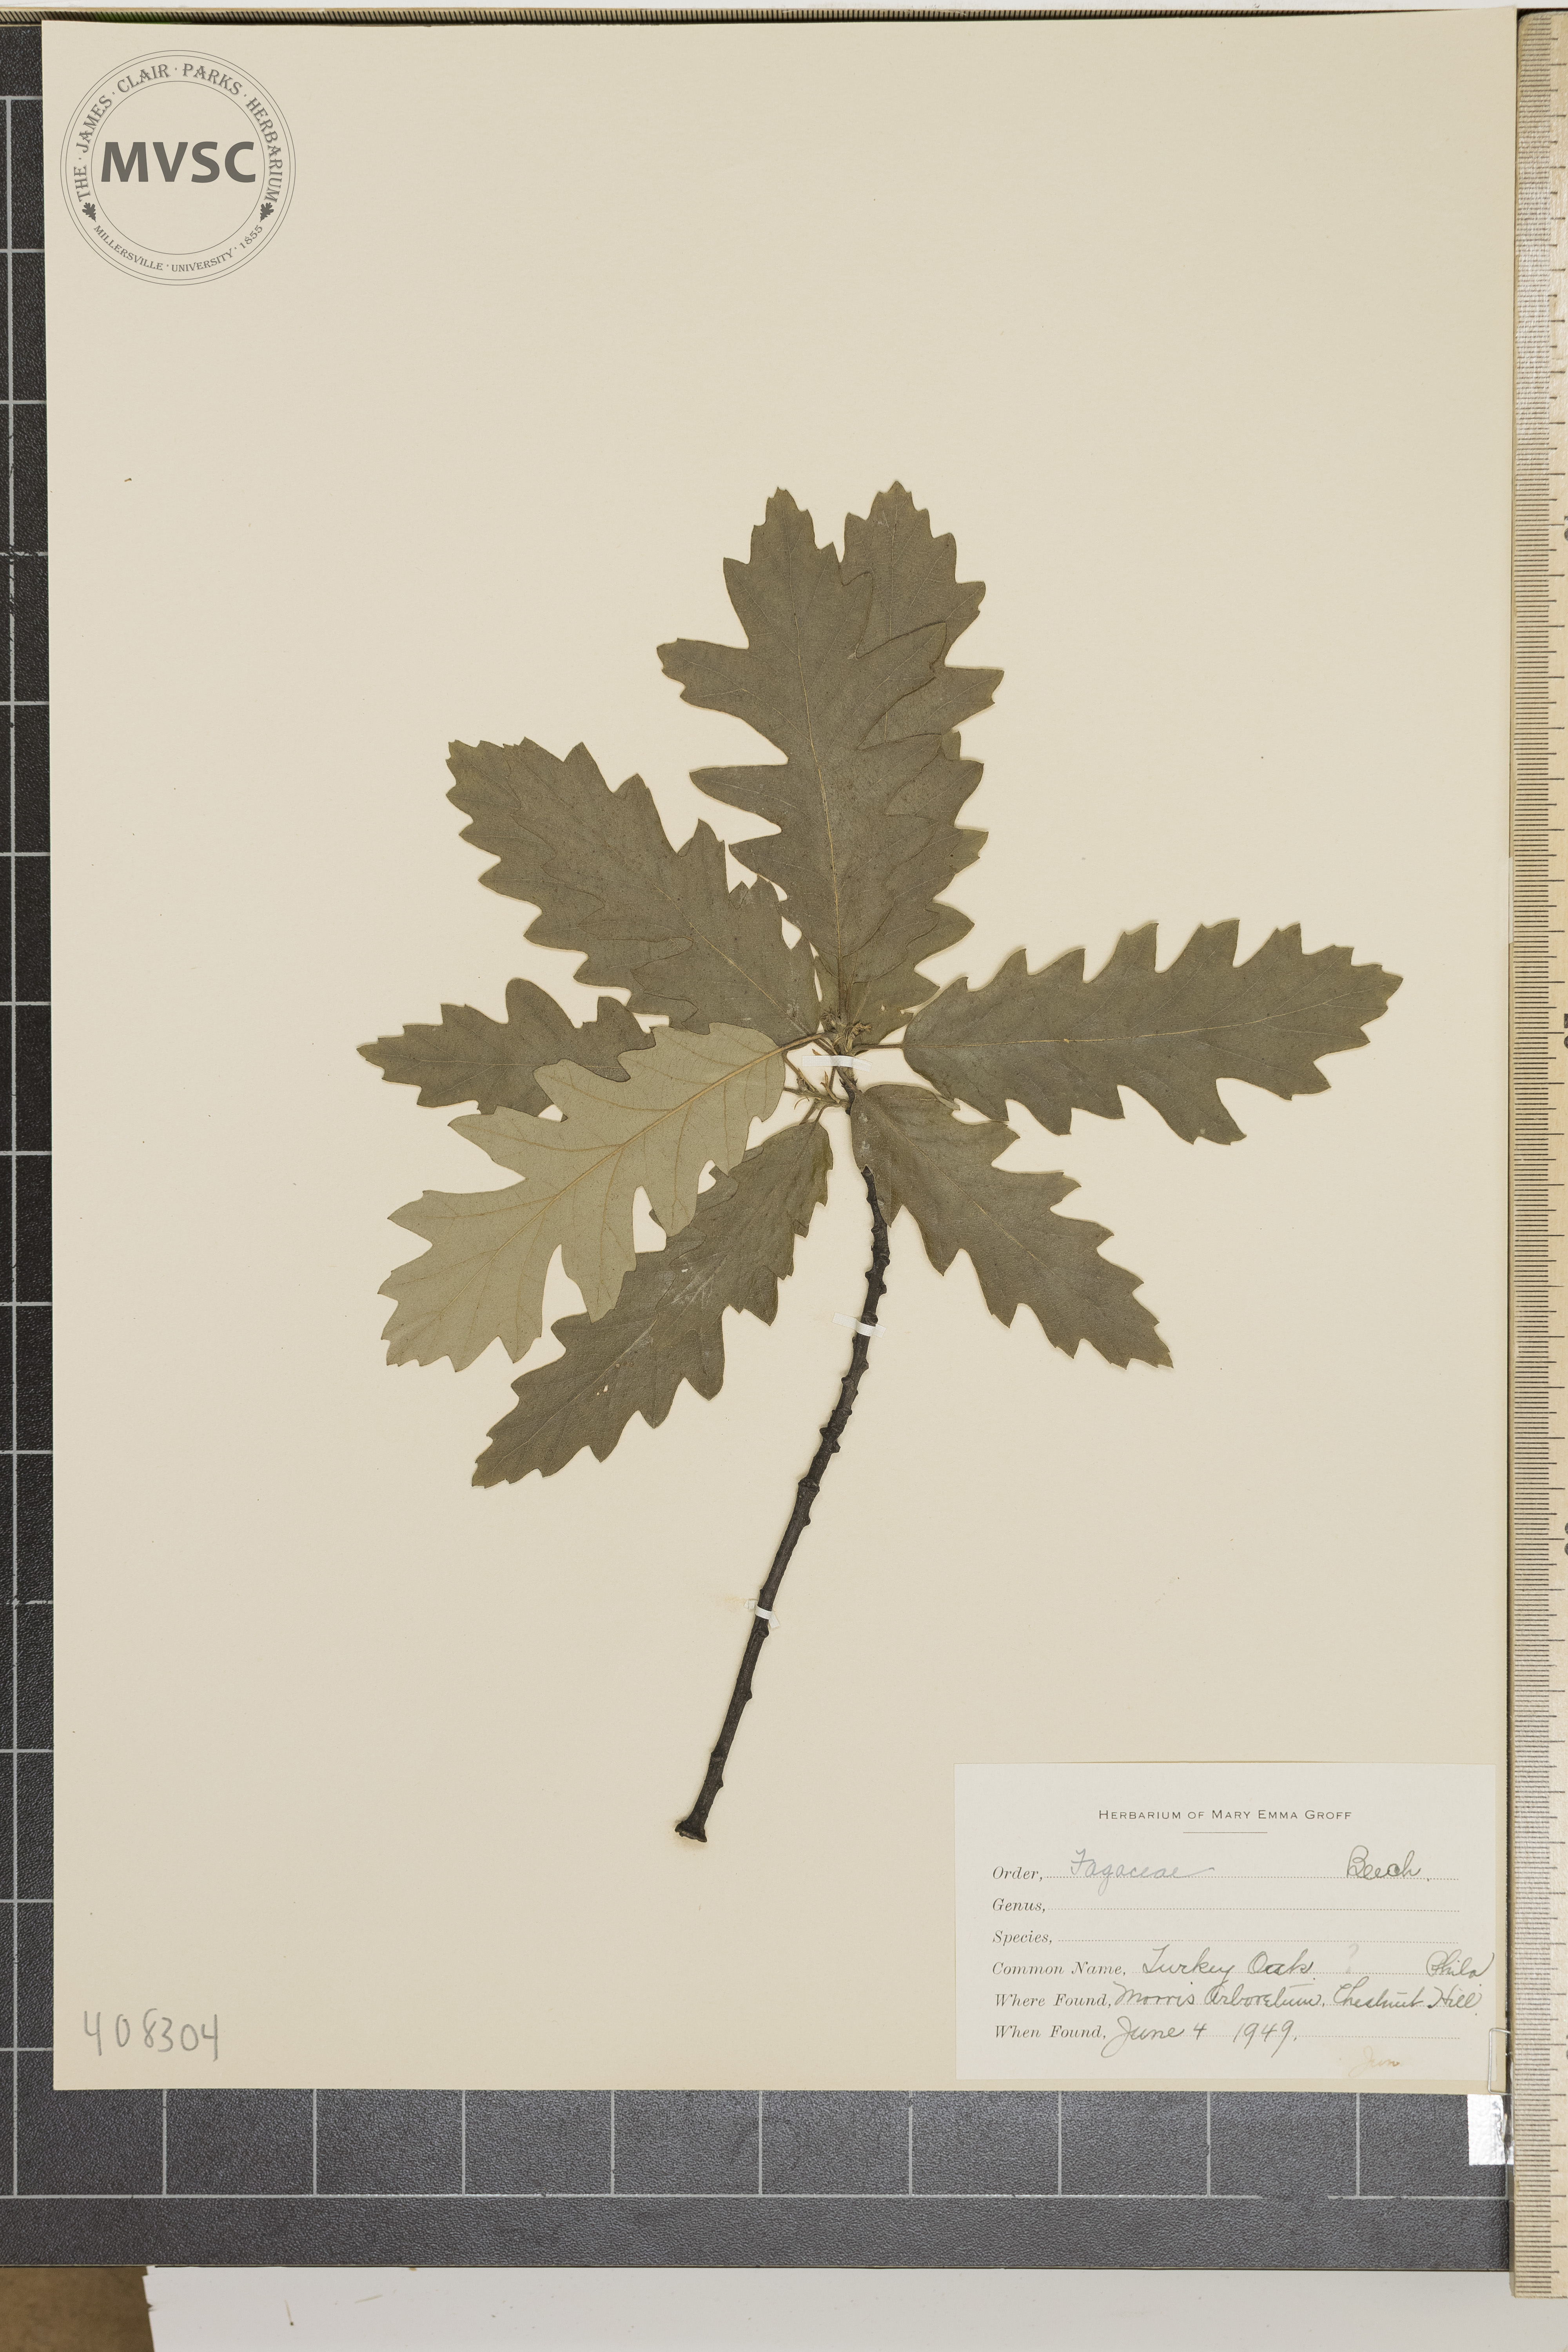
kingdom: Plantae
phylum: Tracheophyta
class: Magnoliopsida
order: Fagales
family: Fagaceae
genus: Quercus
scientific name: Quercus
